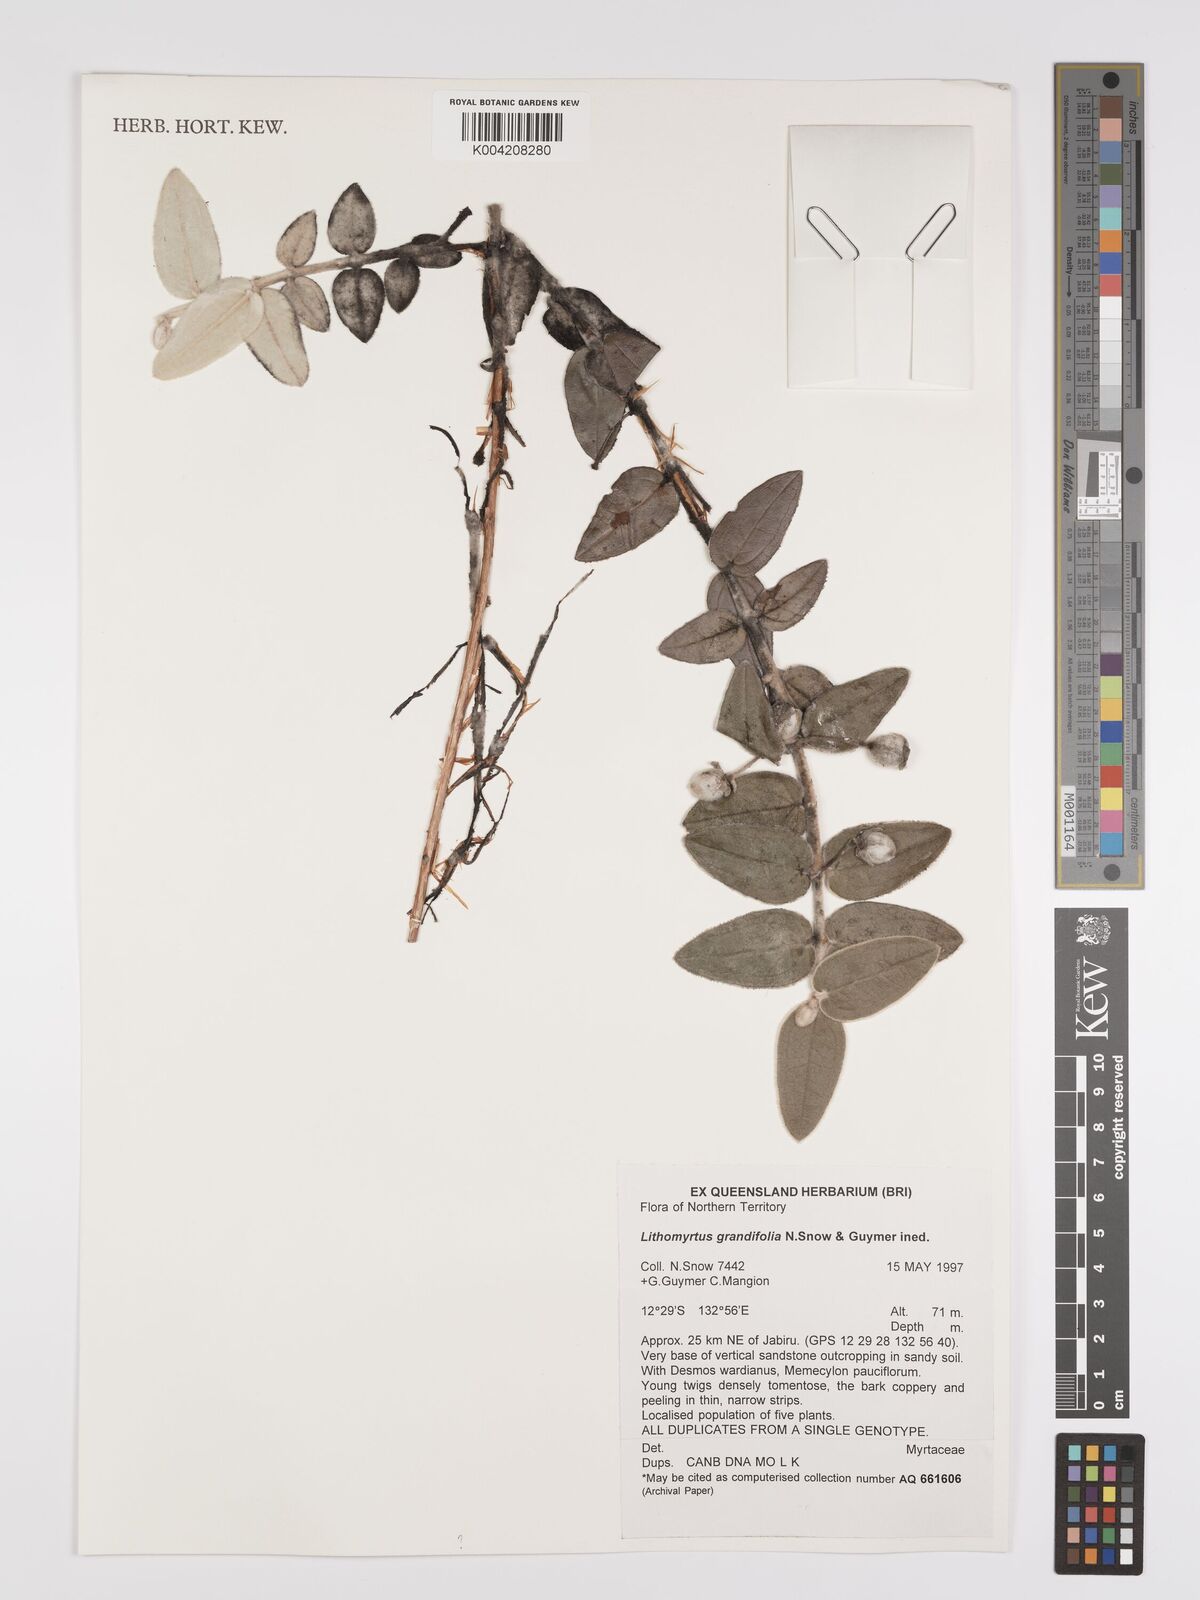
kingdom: Plantae
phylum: Tracheophyta
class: Magnoliopsida
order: Myrtales
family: Myrtaceae
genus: Lithomyrtus
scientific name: Lithomyrtus grandifolia
